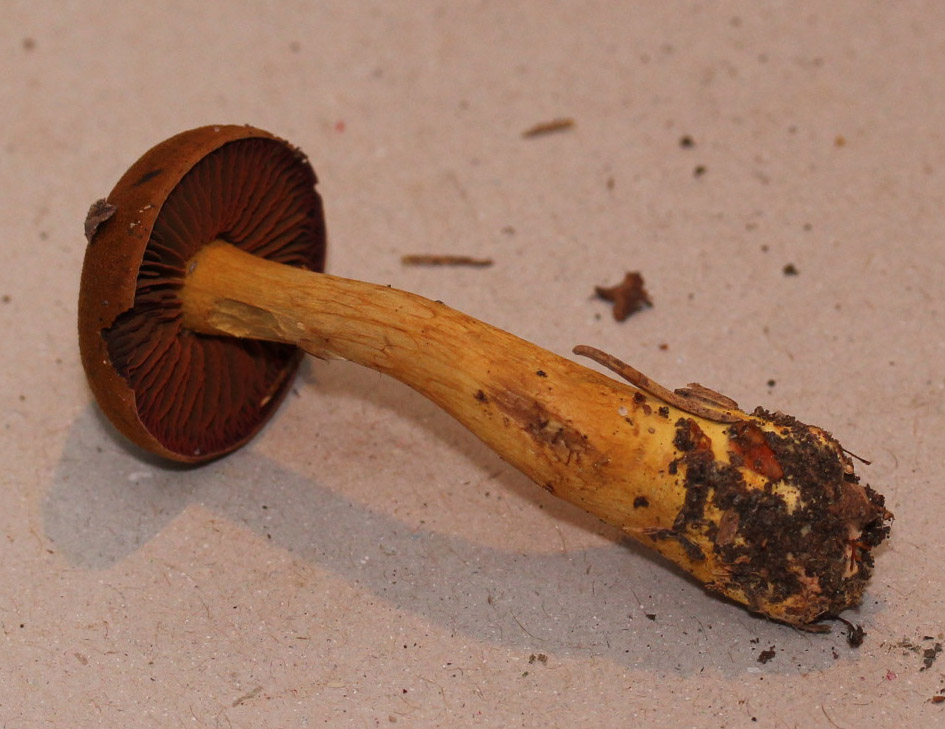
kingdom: Fungi
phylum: Basidiomycota
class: Agaricomycetes
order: Agaricales
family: Cortinariaceae
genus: Cortinarius
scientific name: Cortinarius purpureus
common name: brunrød slørhat
